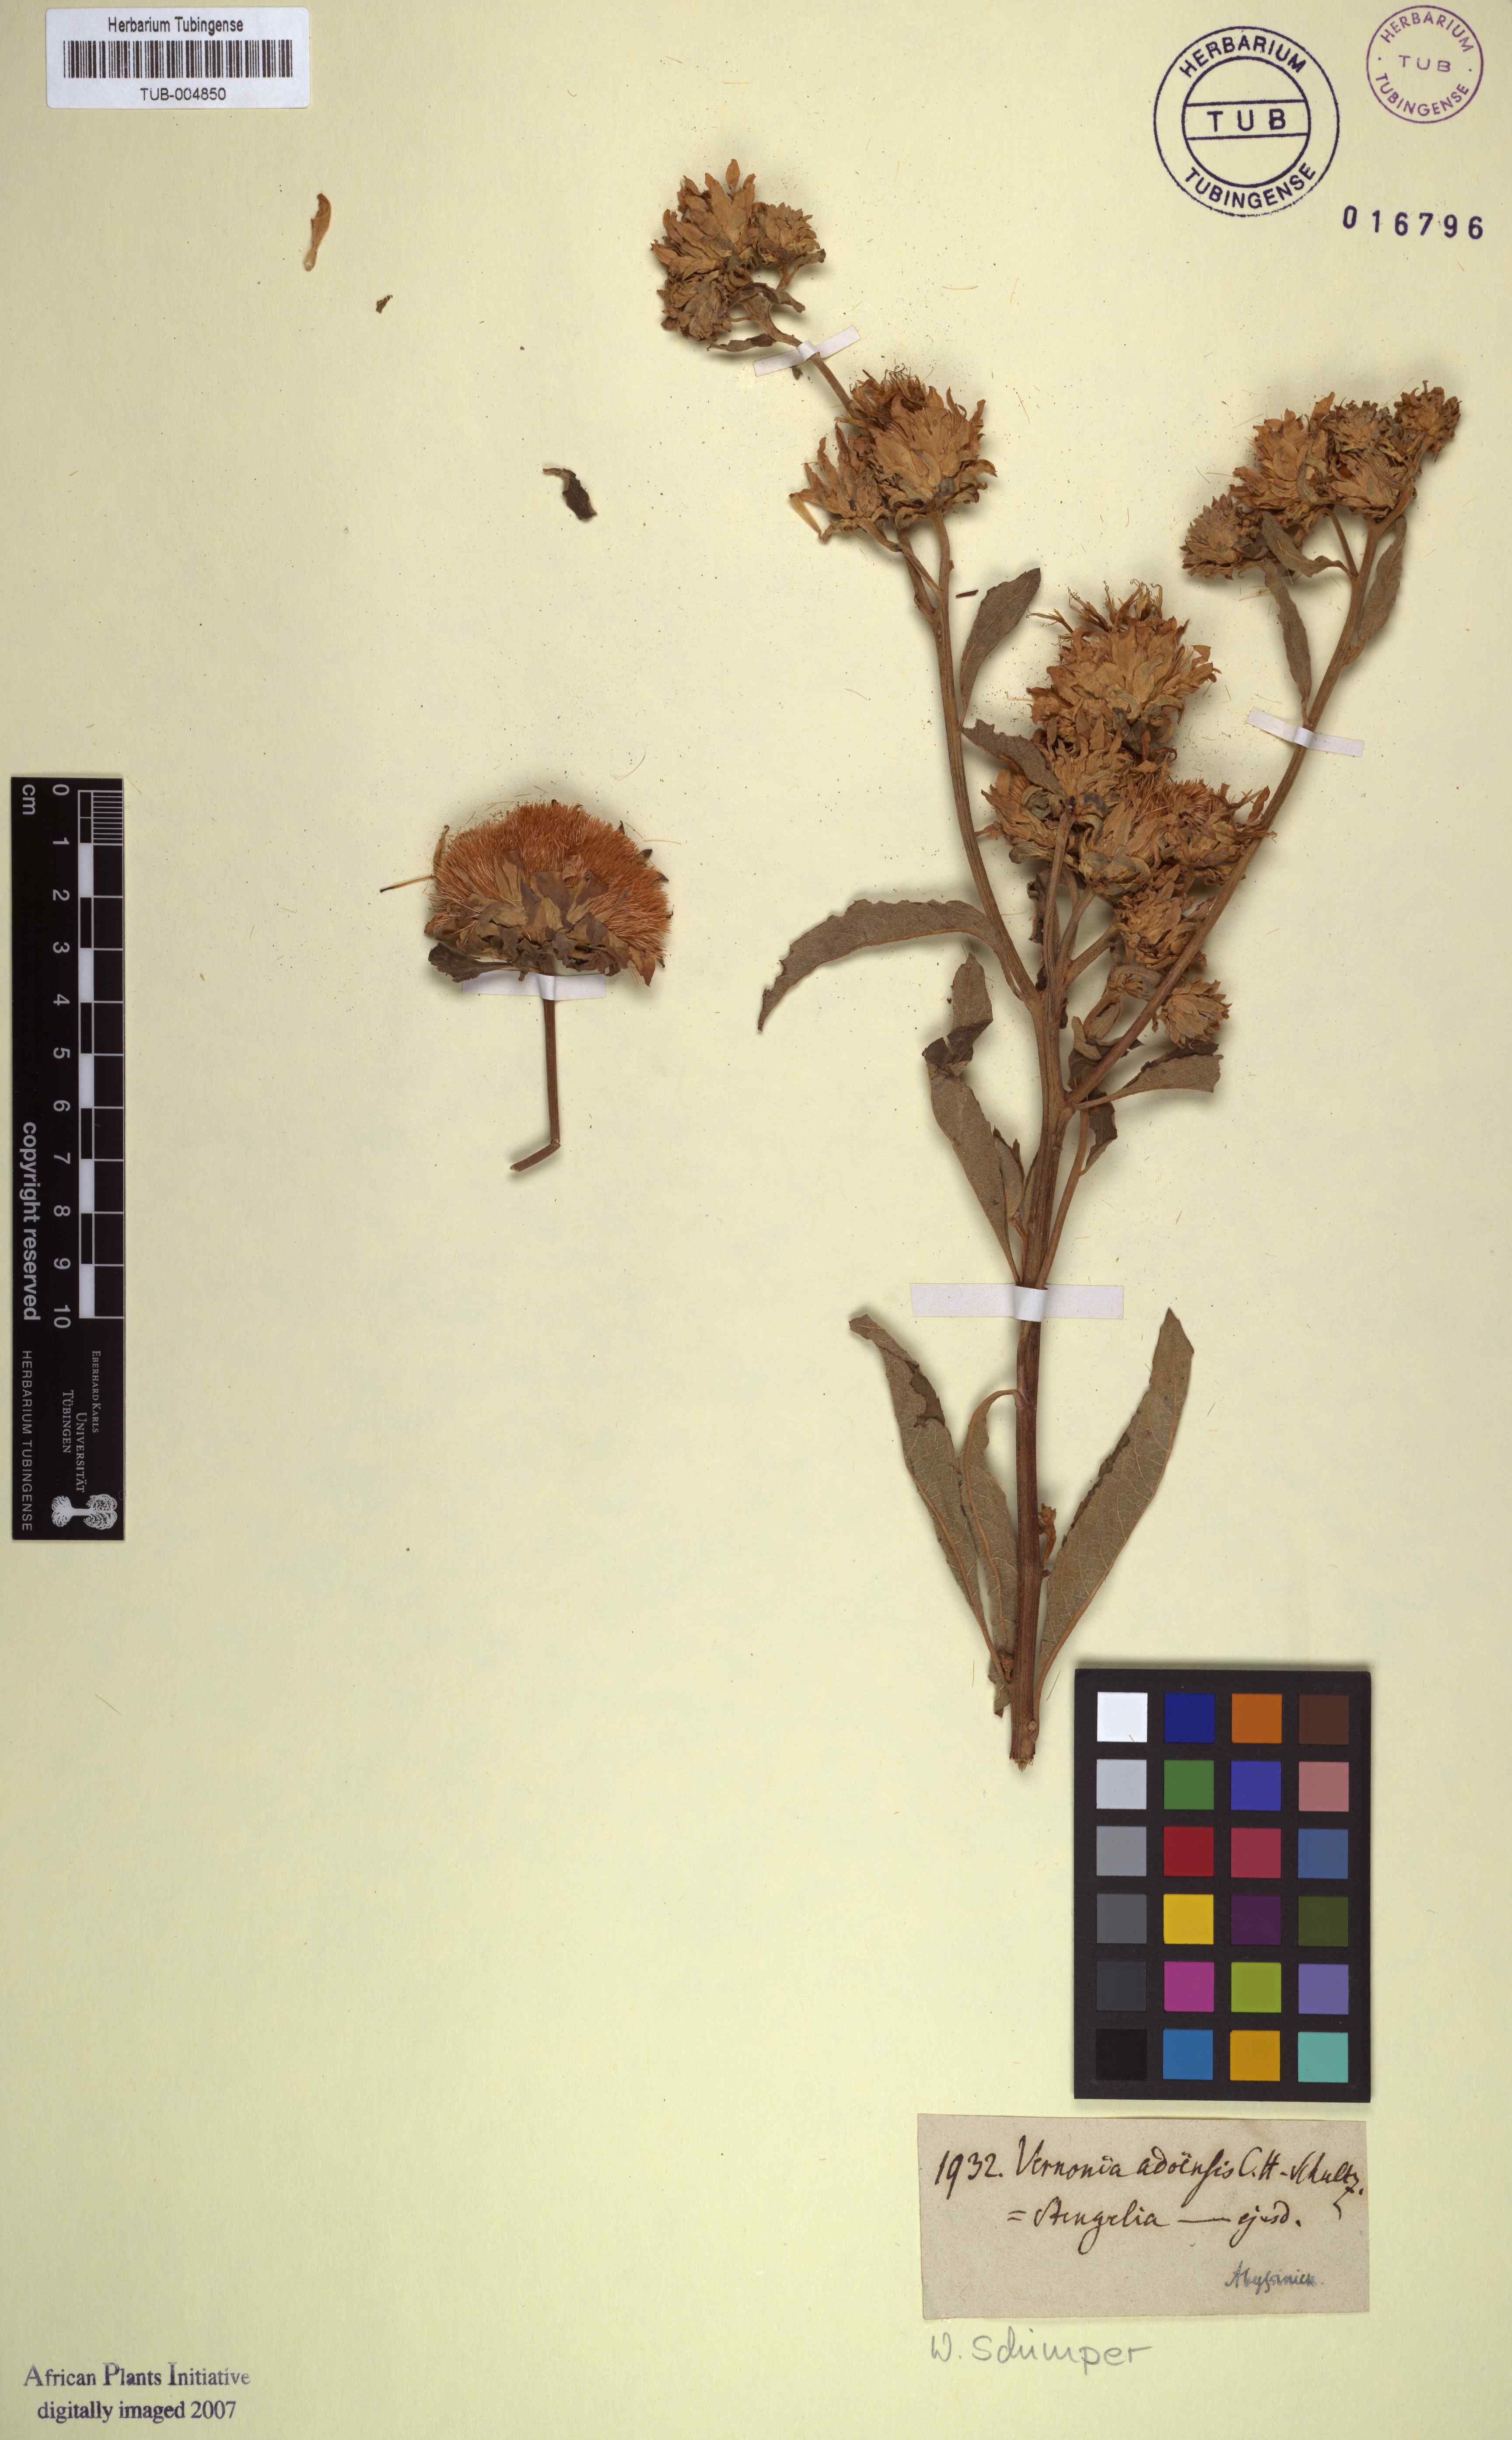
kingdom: Plantae
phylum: Tracheophyta
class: Magnoliopsida
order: Asterales
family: Asteraceae
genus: Baccharoides
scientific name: Baccharoides adoensis
